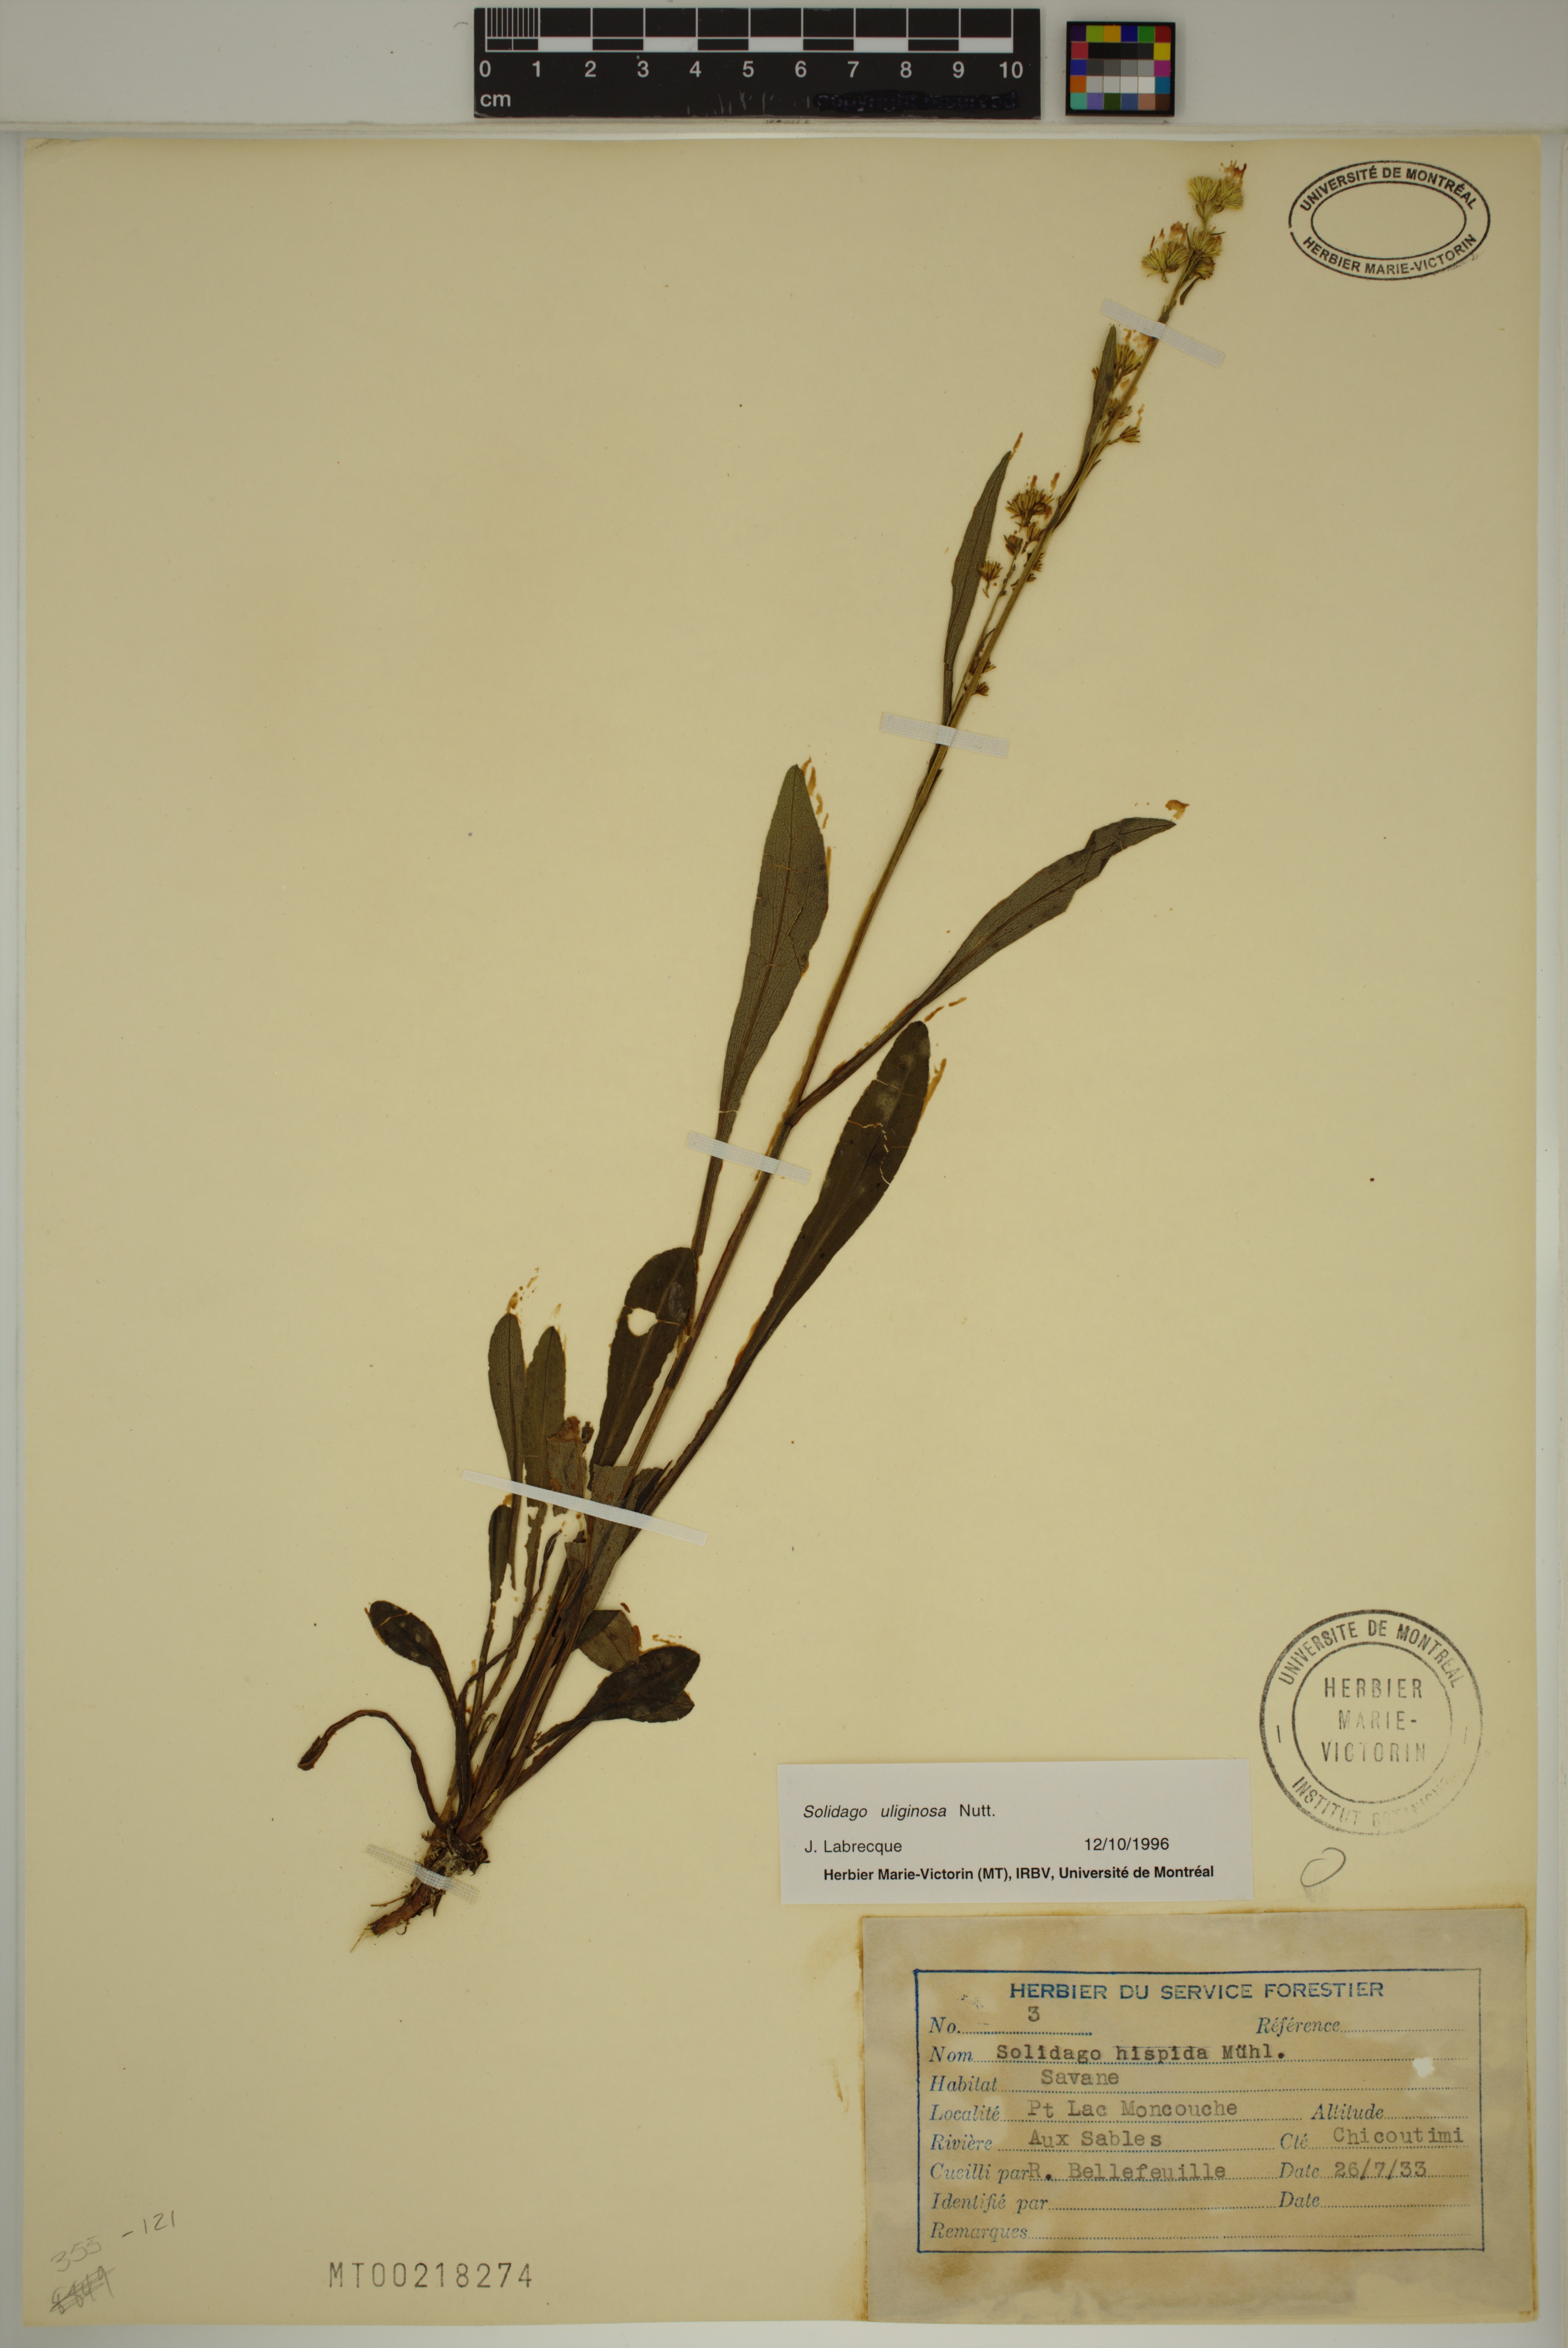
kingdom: Plantae
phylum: Tracheophyta
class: Magnoliopsida
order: Asterales
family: Asteraceae
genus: Solidago
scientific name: Solidago uliginosa
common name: Bog goldenrod
